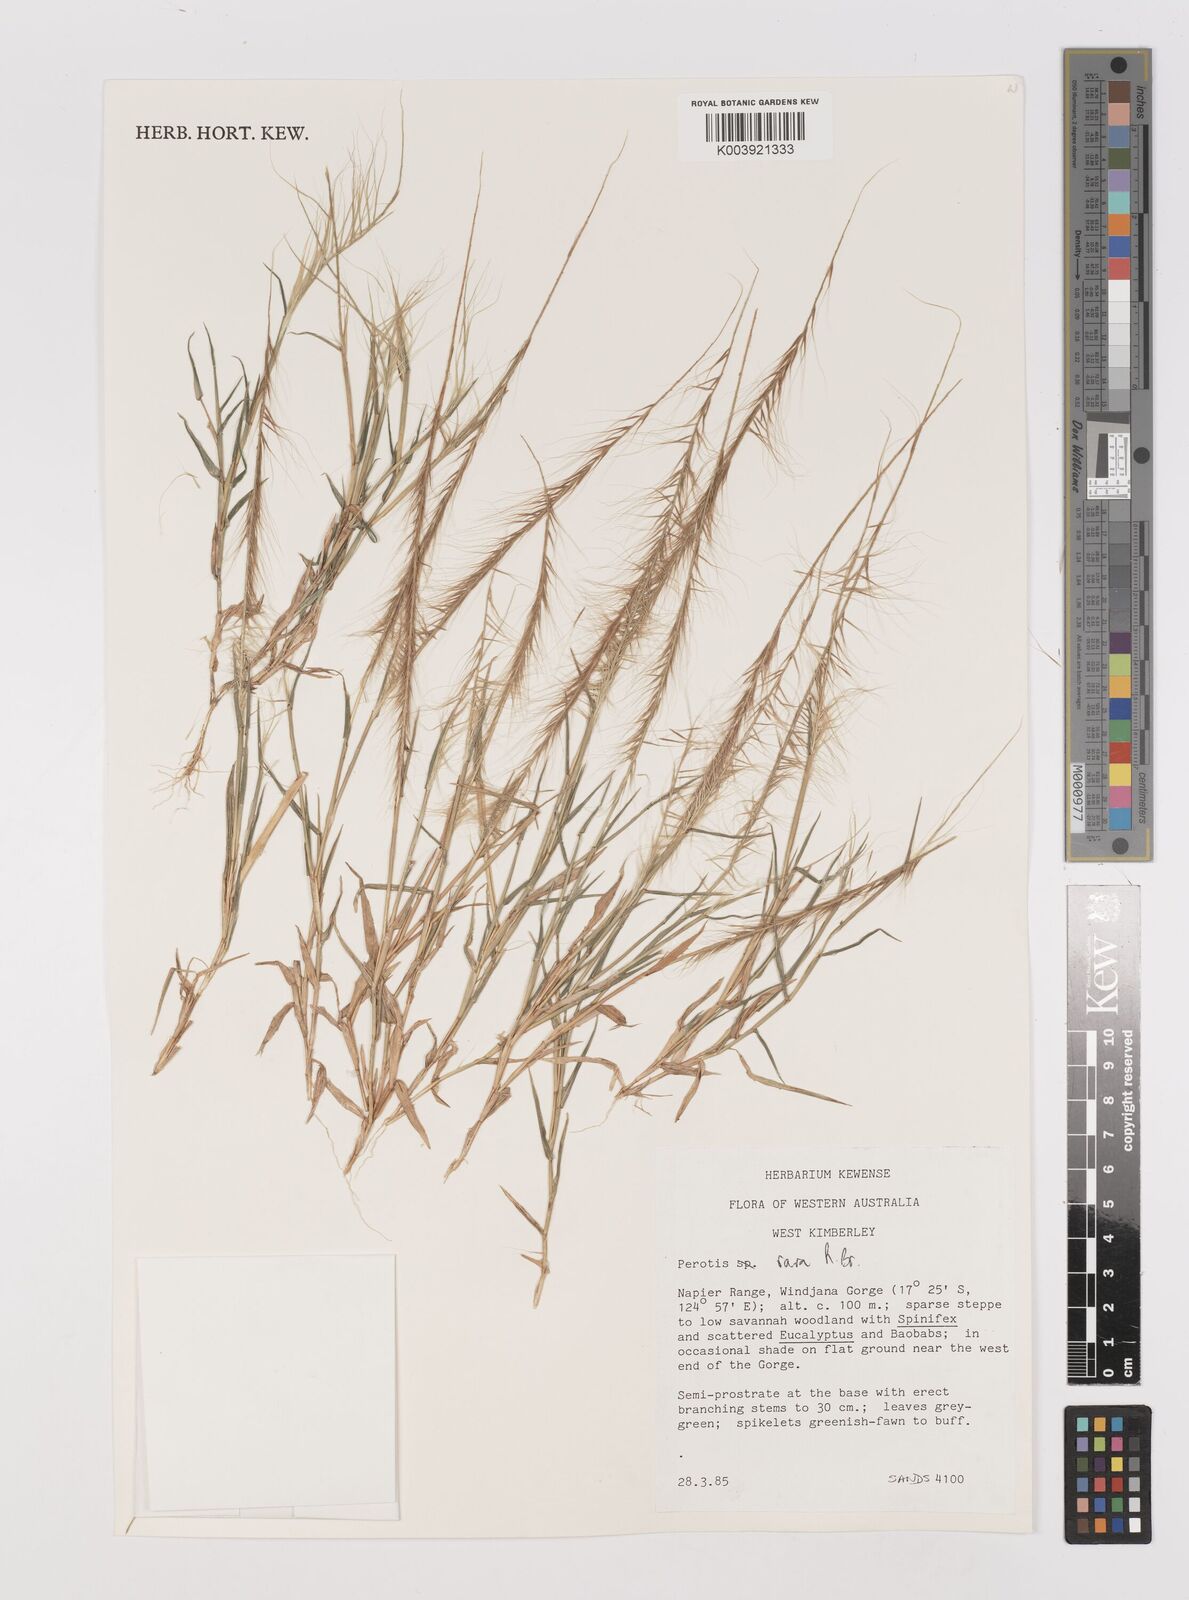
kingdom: Plantae
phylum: Tracheophyta
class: Liliopsida
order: Poales
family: Poaceae
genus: Perotis
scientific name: Perotis rara
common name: Comet grass
